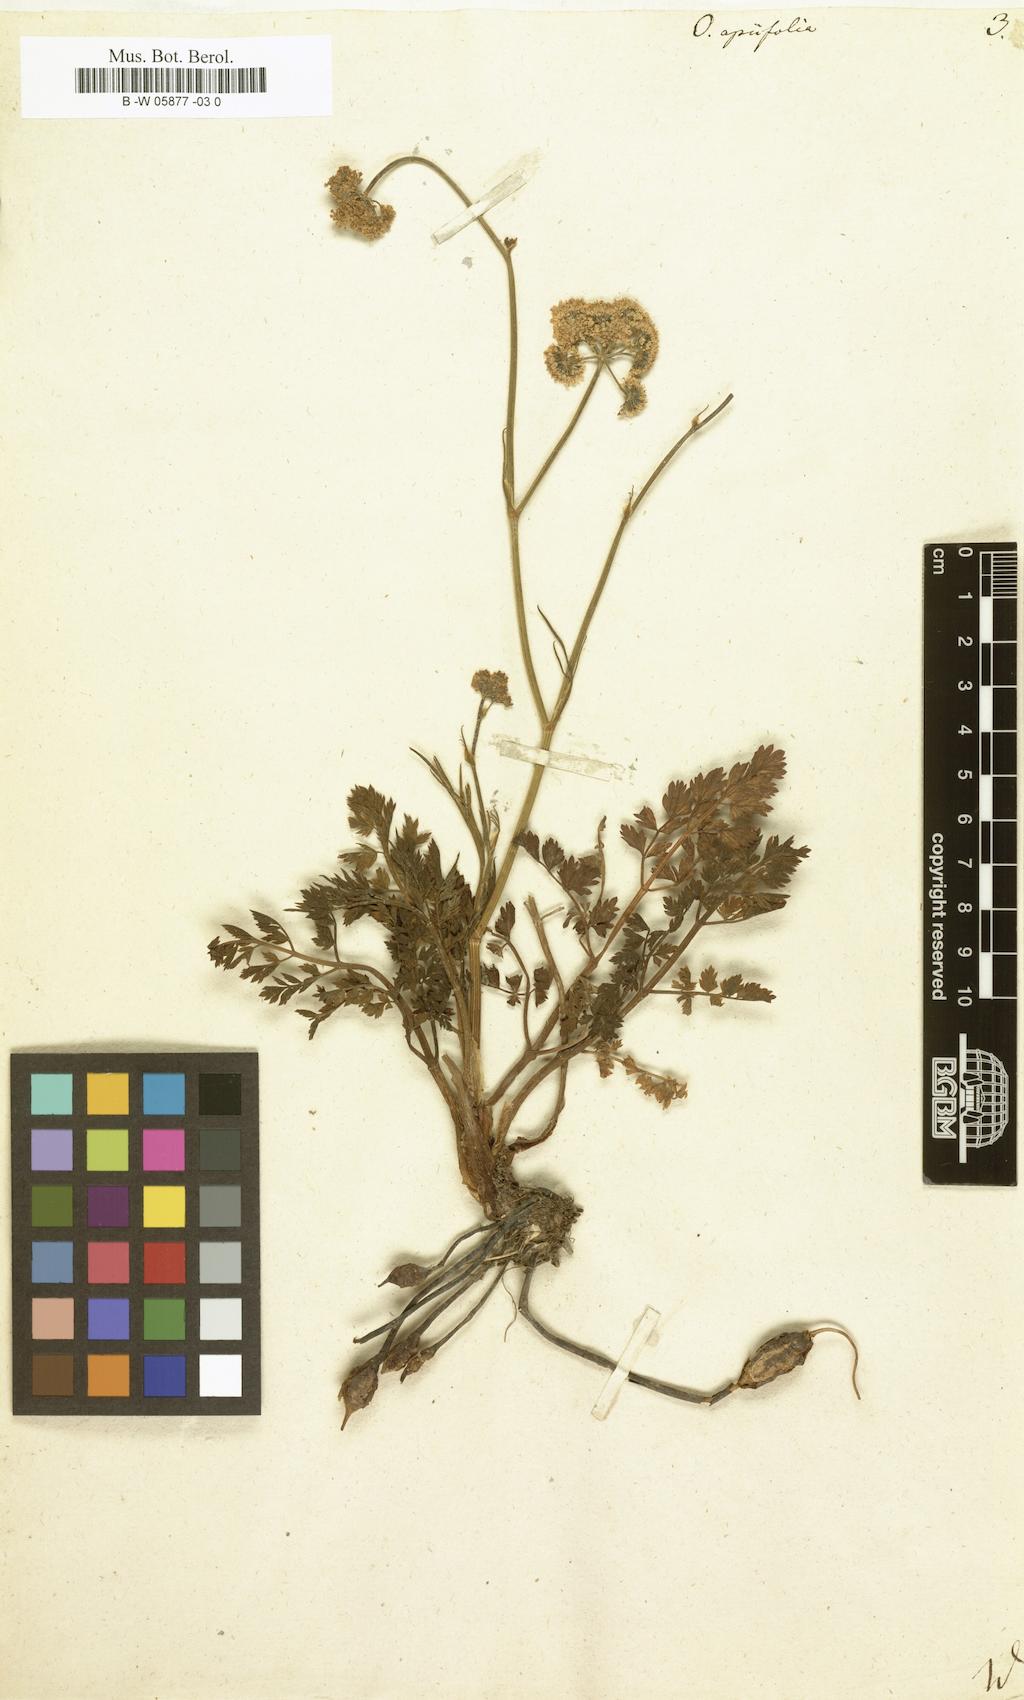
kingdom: Plantae
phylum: Tracheophyta
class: Magnoliopsida
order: Apiales
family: Apiaceae
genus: Oenanthe
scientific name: Oenanthe crocata
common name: Hemlock water-dropwort
